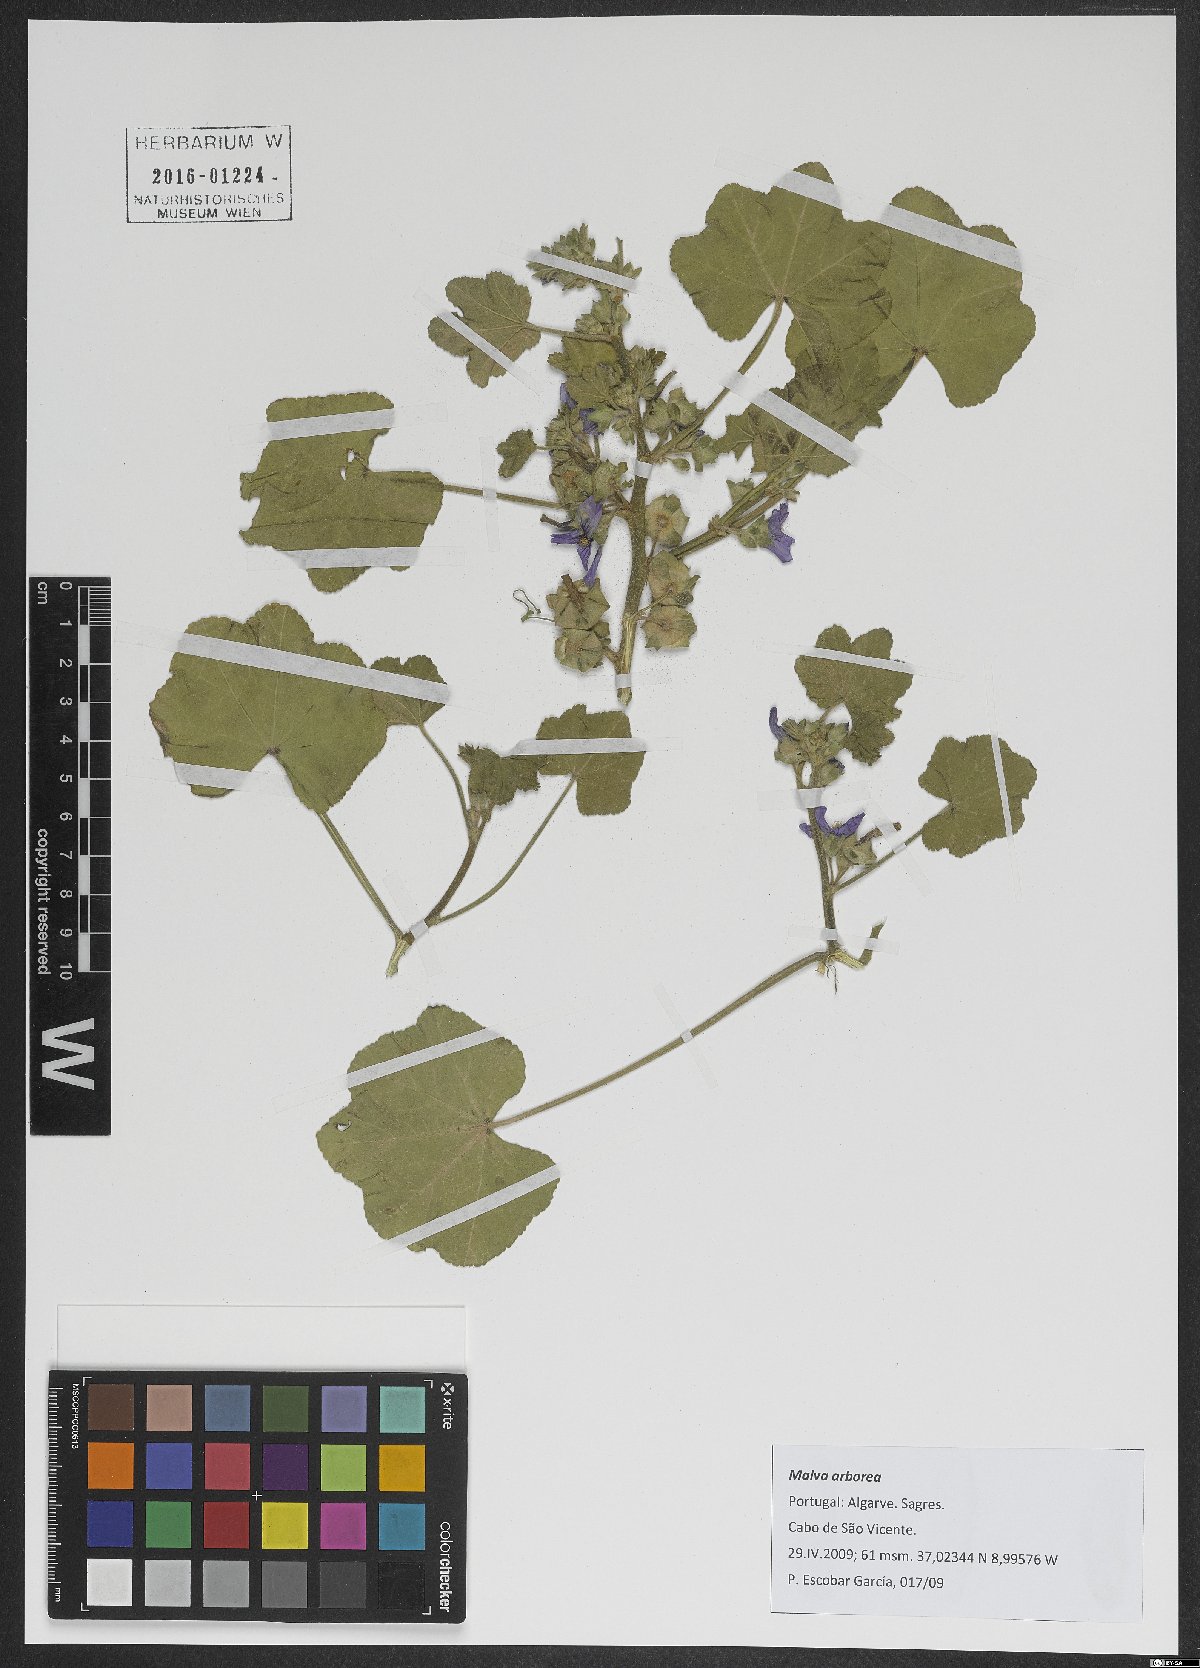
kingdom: Plantae
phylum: Tracheophyta
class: Magnoliopsida
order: Malvales
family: Malvaceae
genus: Malva
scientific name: Malva arborea
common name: Tree mallow
